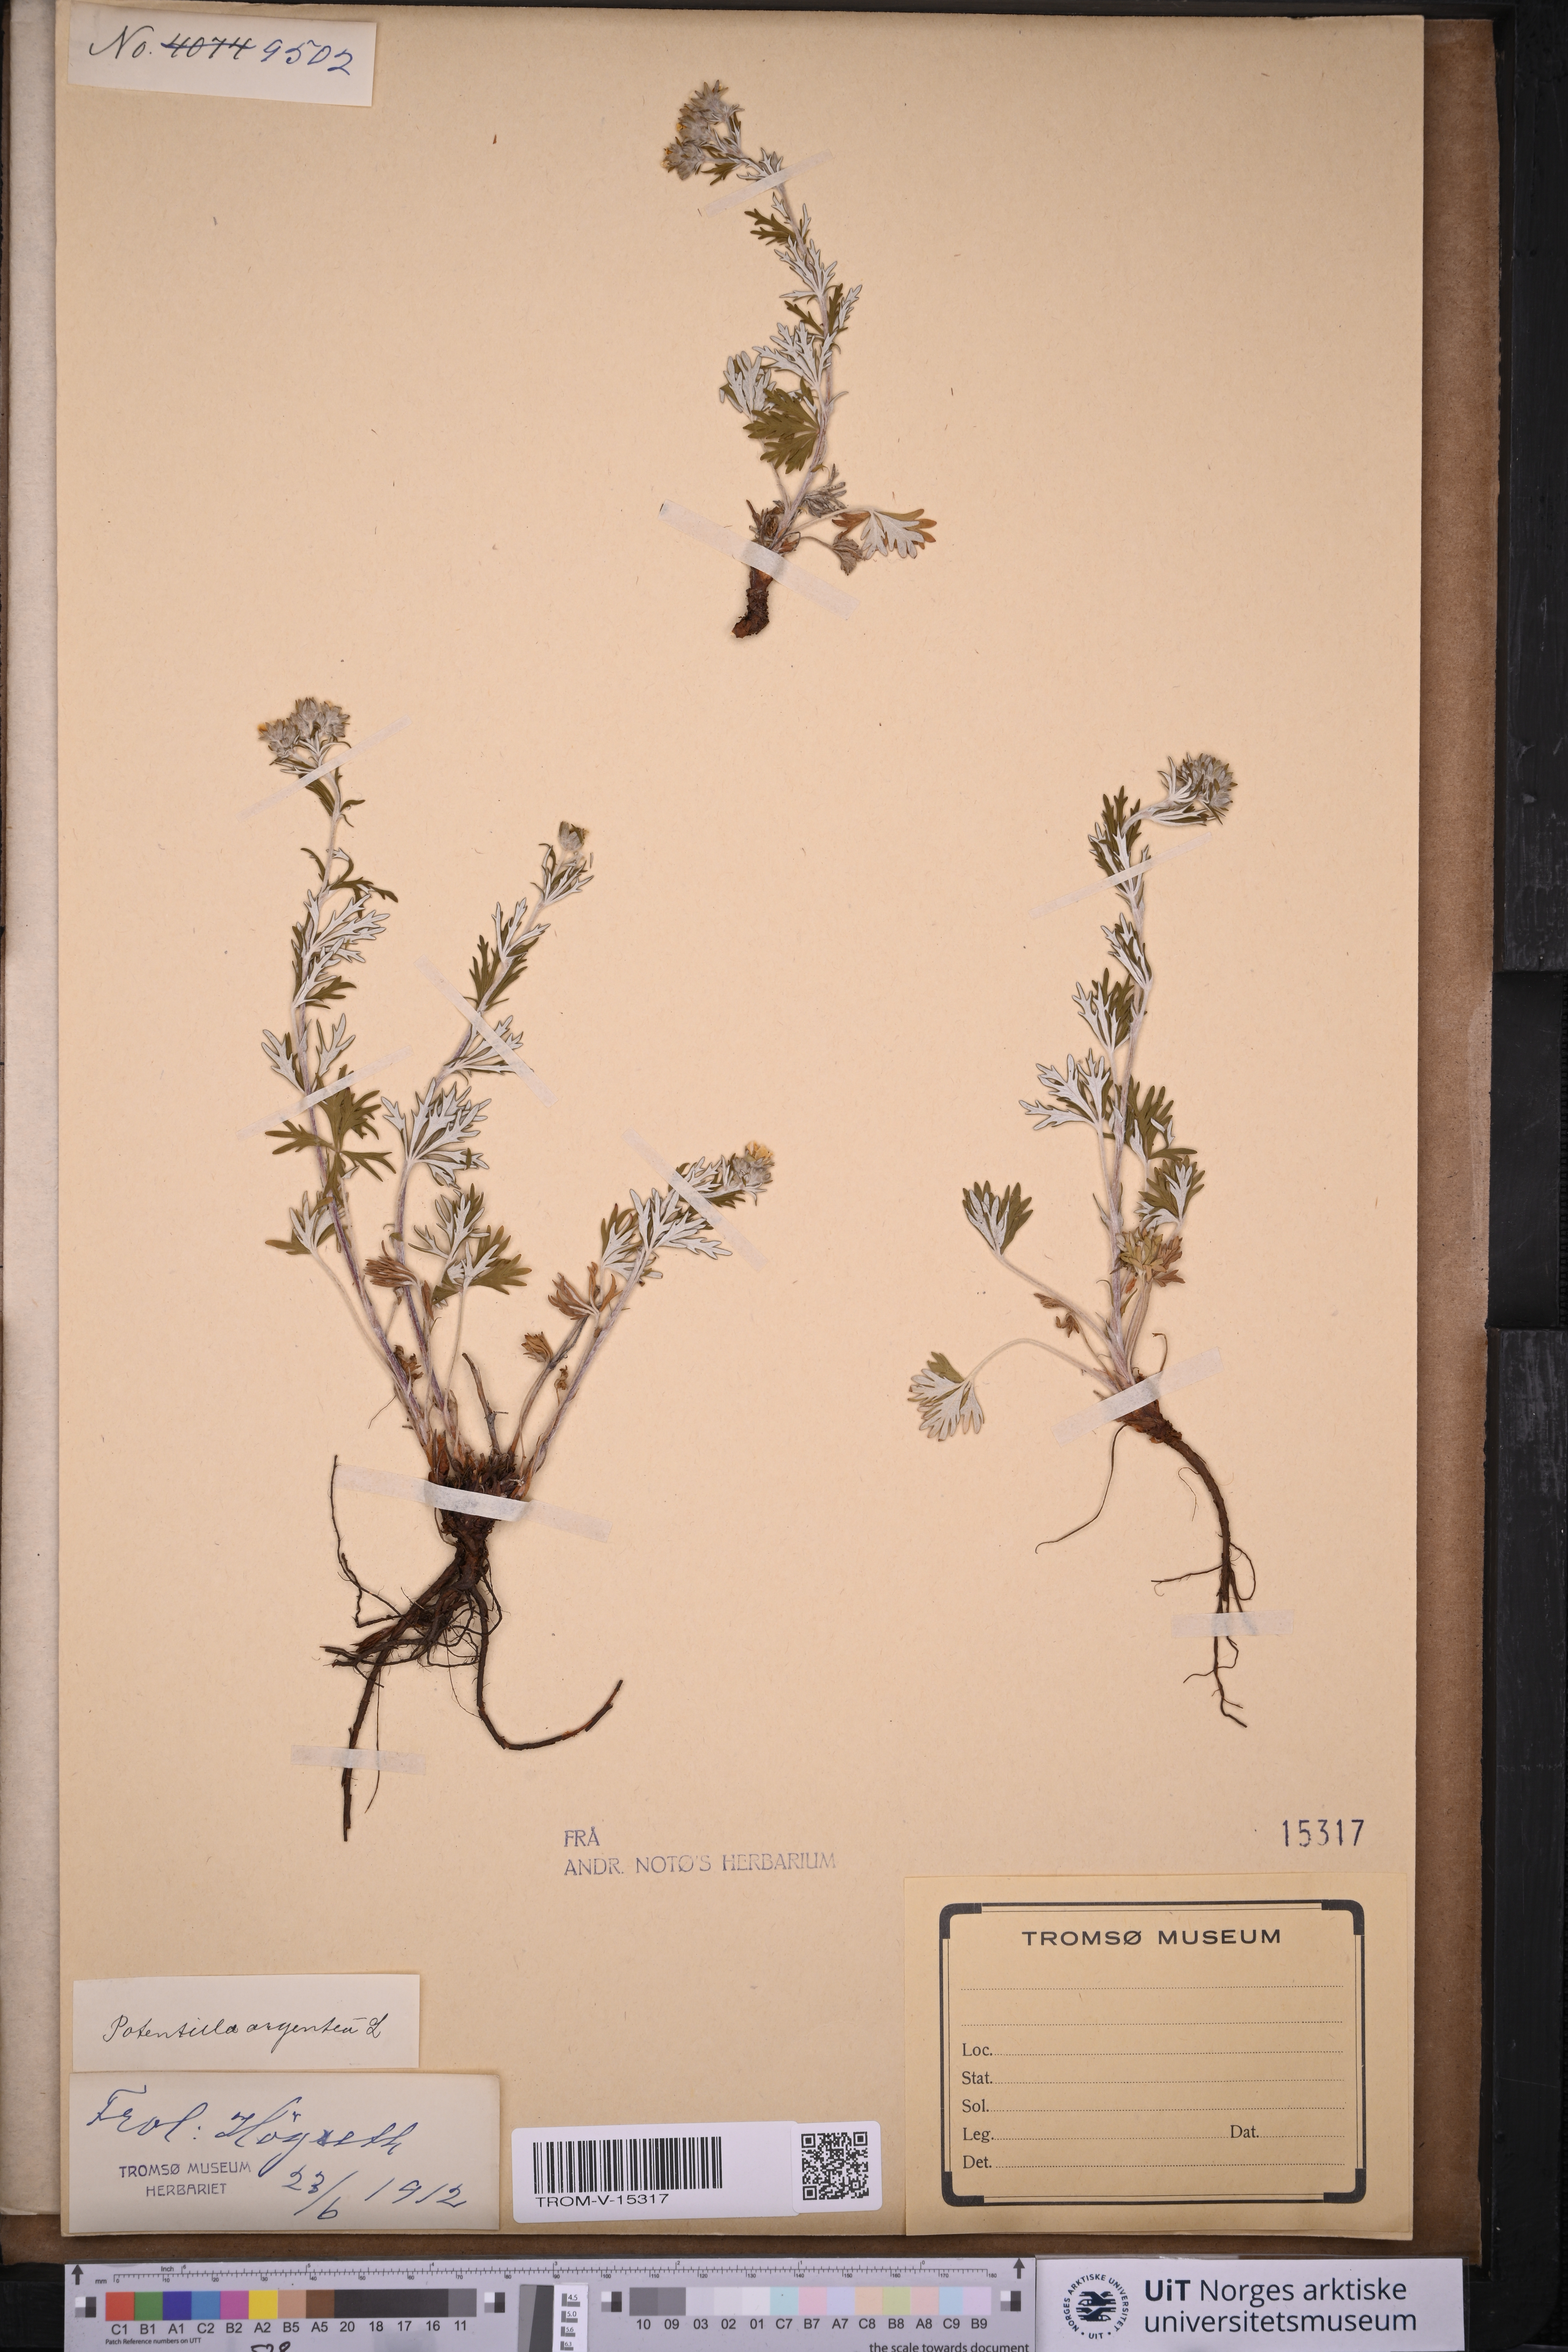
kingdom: Plantae
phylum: Tracheophyta
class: Magnoliopsida
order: Rosales
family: Rosaceae
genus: Potentilla
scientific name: Potentilla argentea
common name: Hoary cinquefoil
